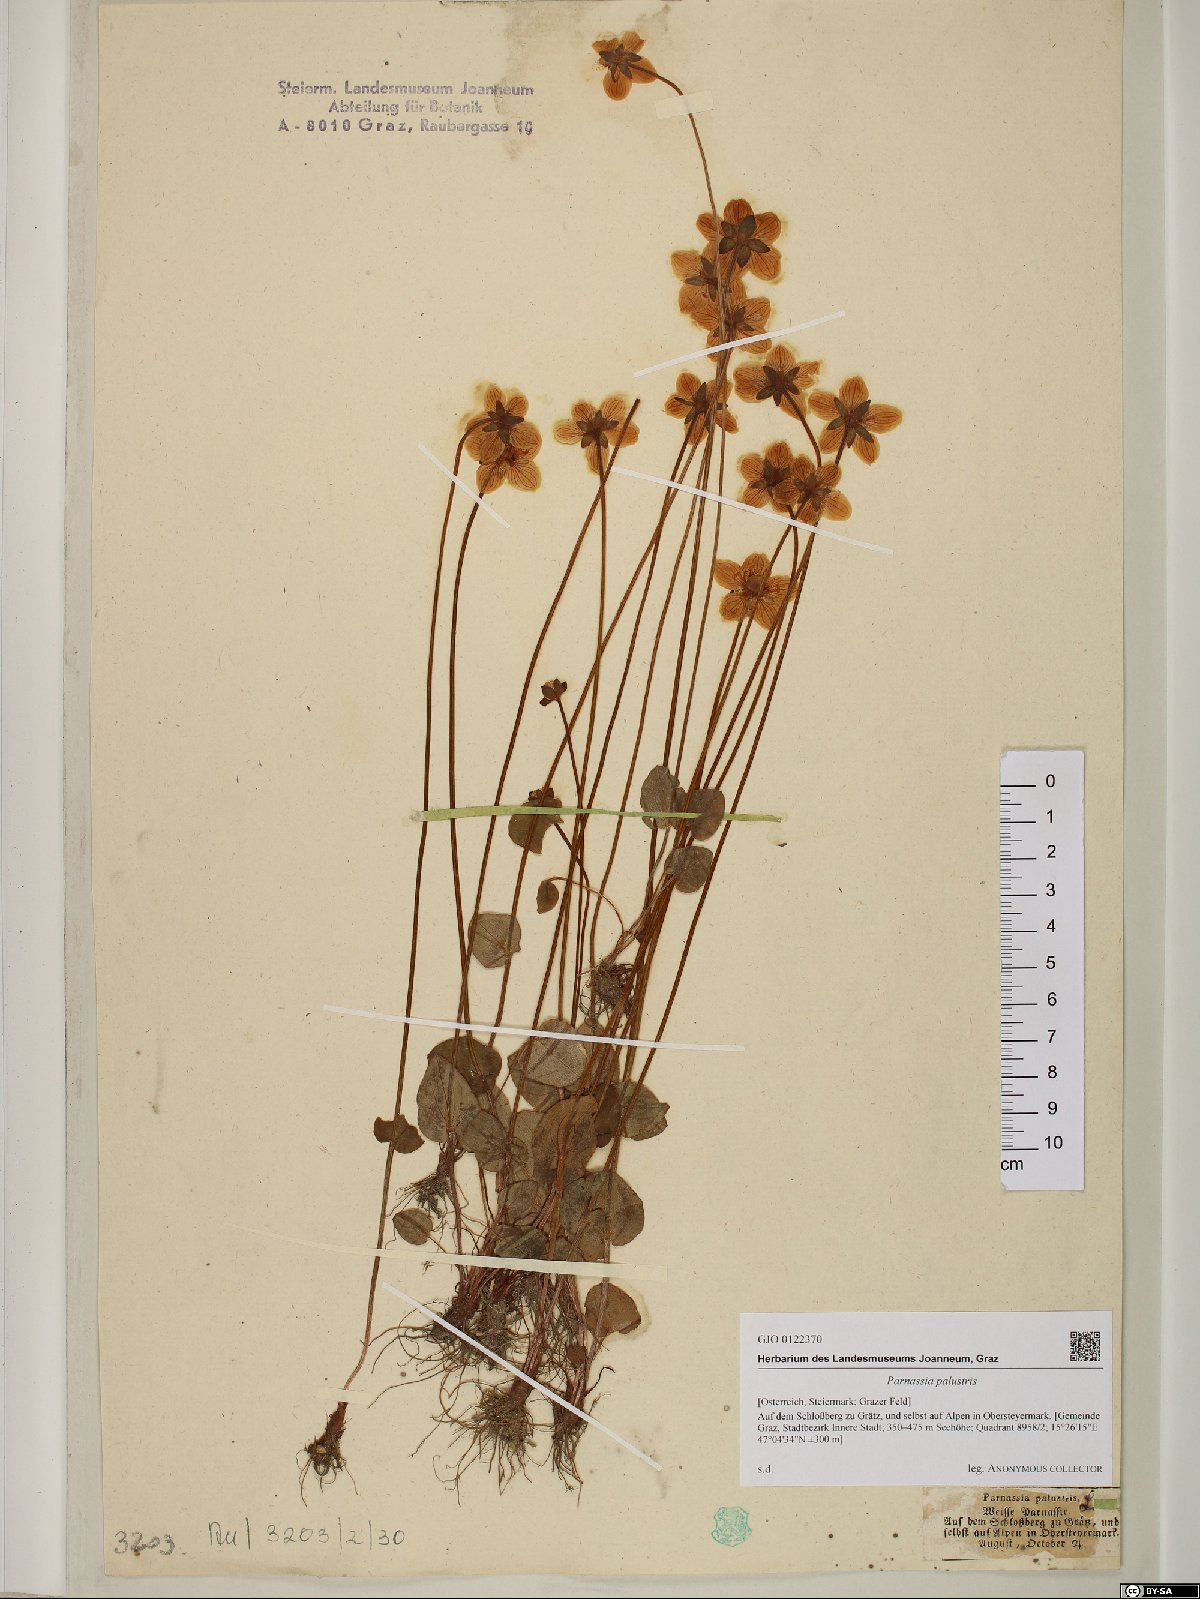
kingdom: Plantae
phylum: Tracheophyta
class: Magnoliopsida
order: Celastrales
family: Parnassiaceae
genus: Parnassia
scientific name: Parnassia palustris
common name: Grass-of-parnassus
